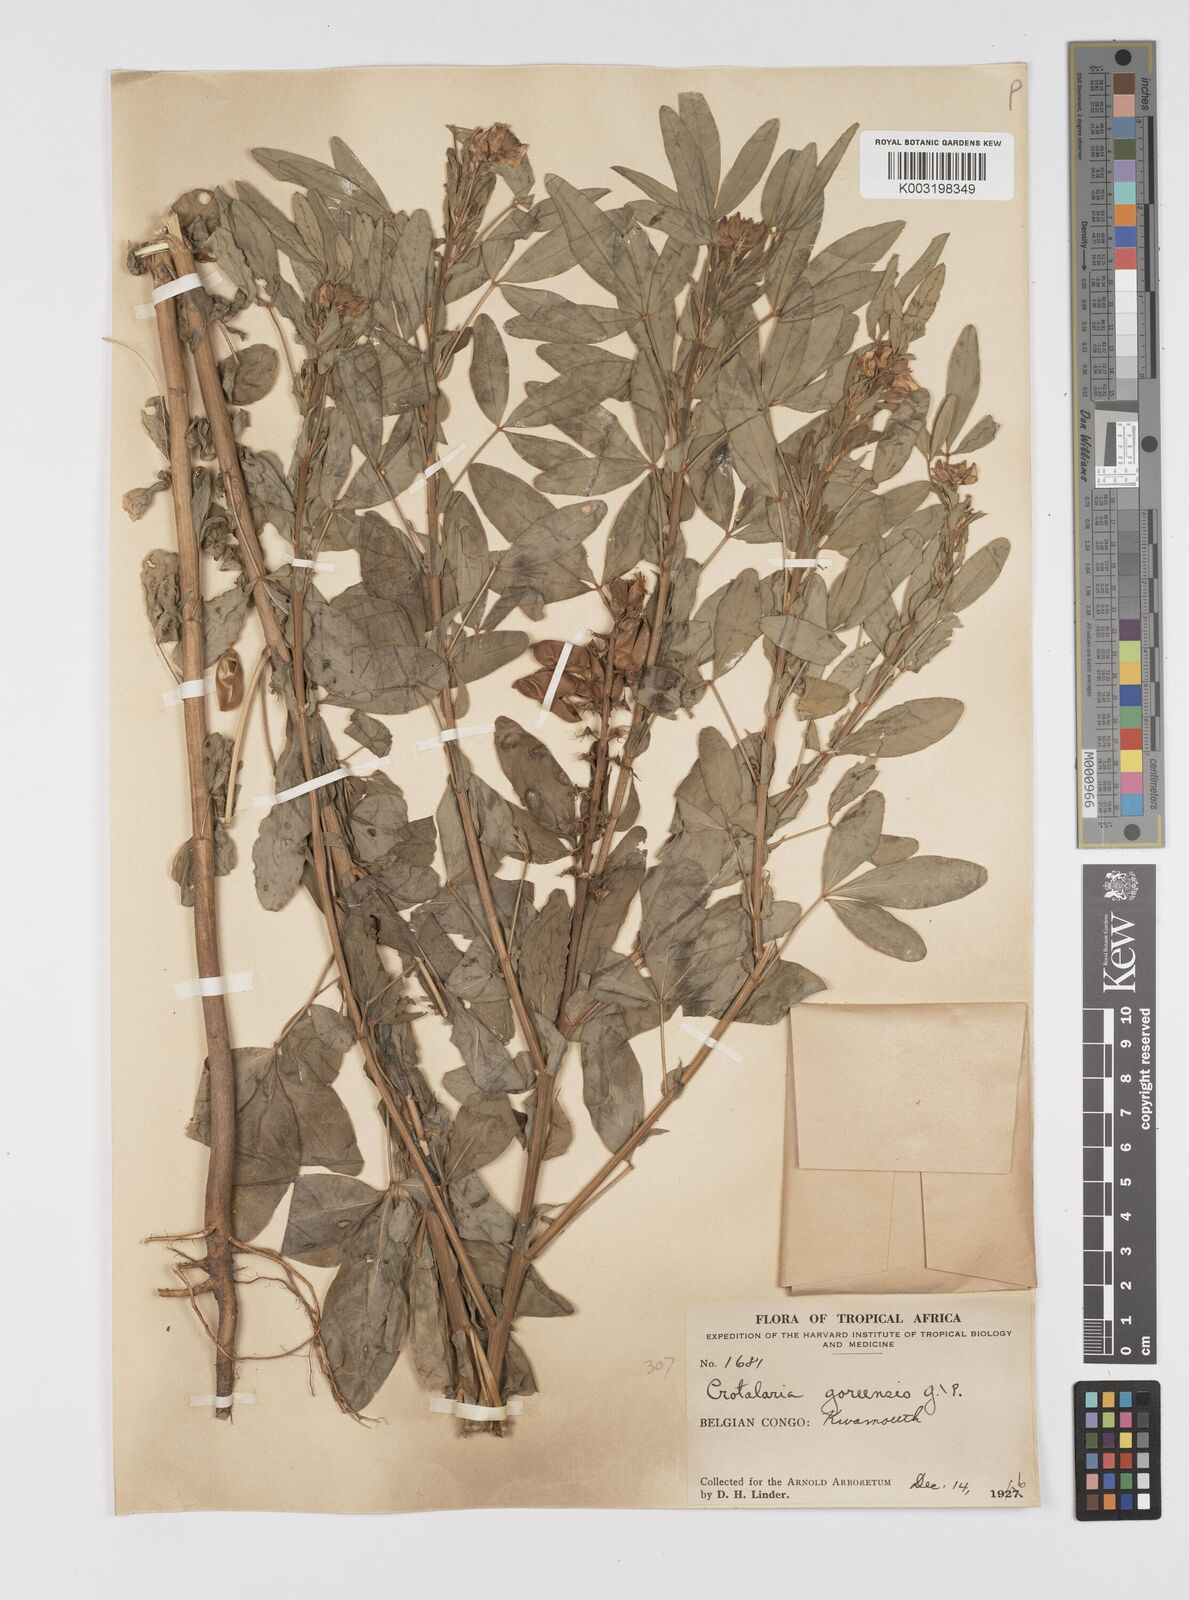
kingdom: Plantae
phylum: Tracheophyta
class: Magnoliopsida
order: Fabales
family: Fabaceae
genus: Crotalaria
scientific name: Crotalaria goreensis
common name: Gambia-pea
